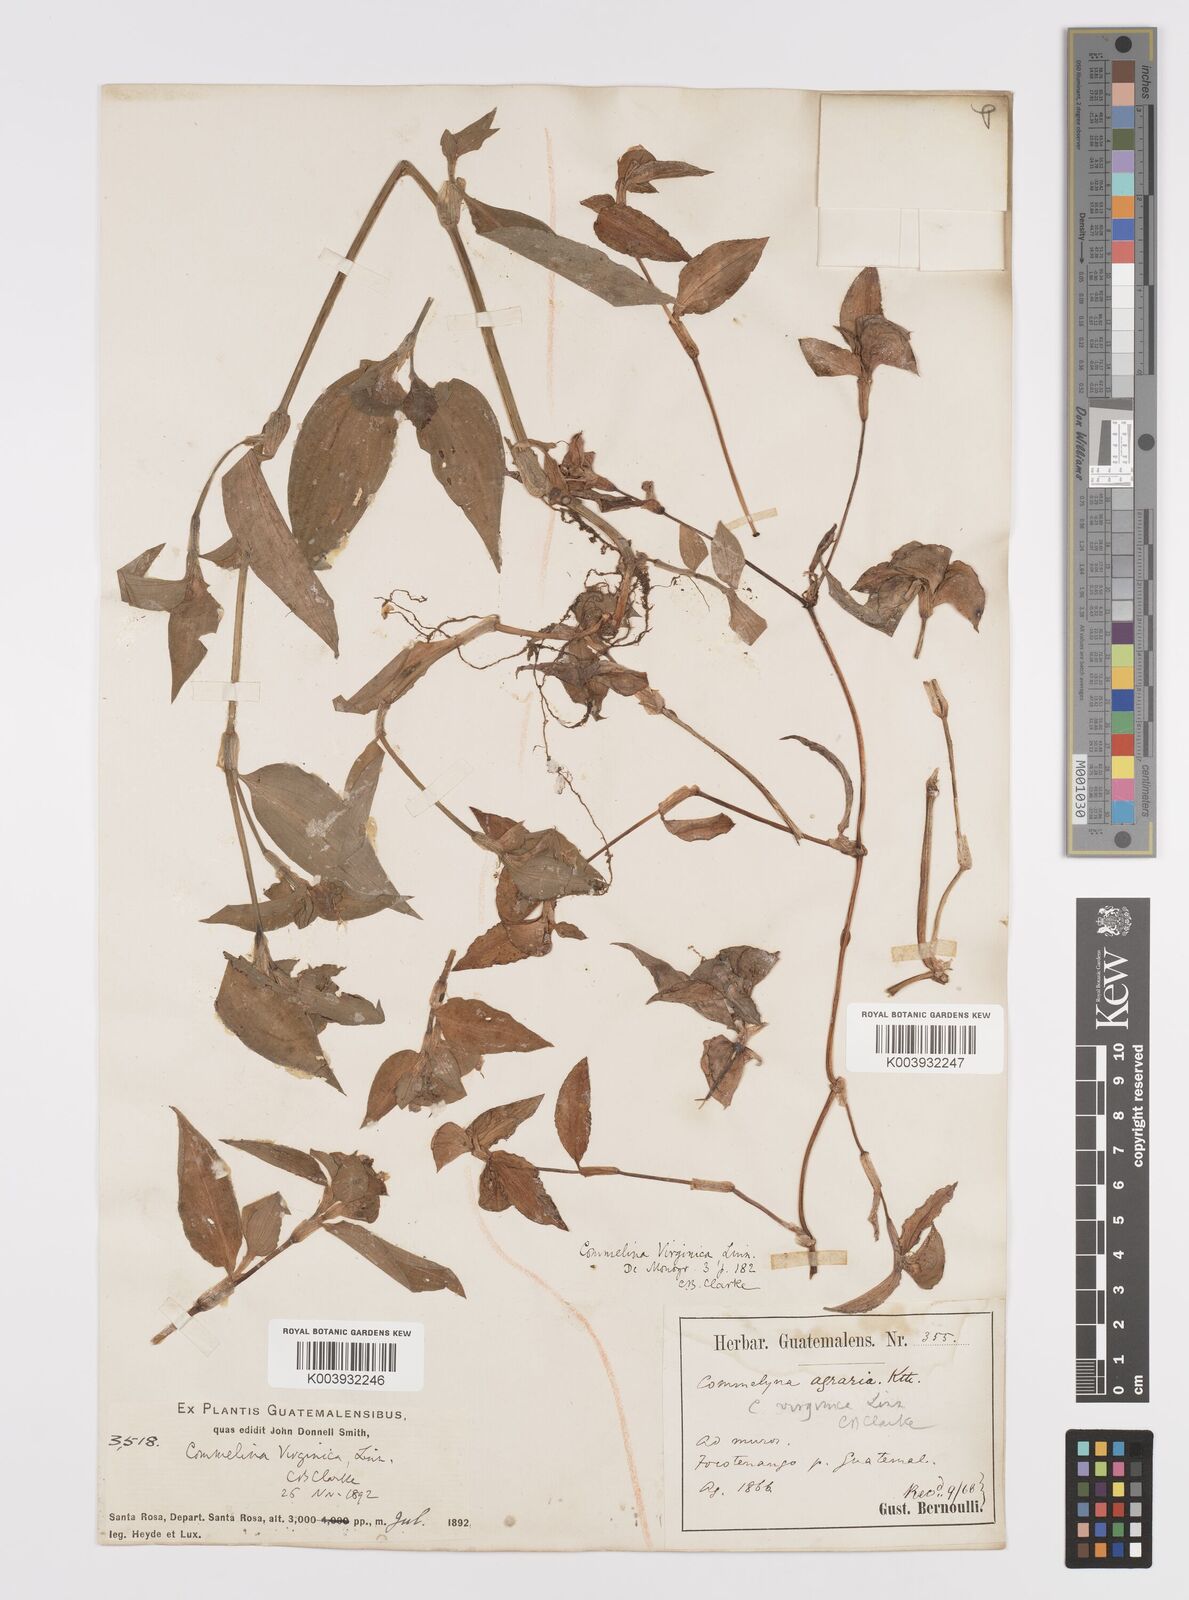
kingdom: Plantae
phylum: Tracheophyta
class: Liliopsida
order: Commelinales
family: Commelinaceae
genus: Commelina
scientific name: Commelina erecta
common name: Blousel blommetjie
